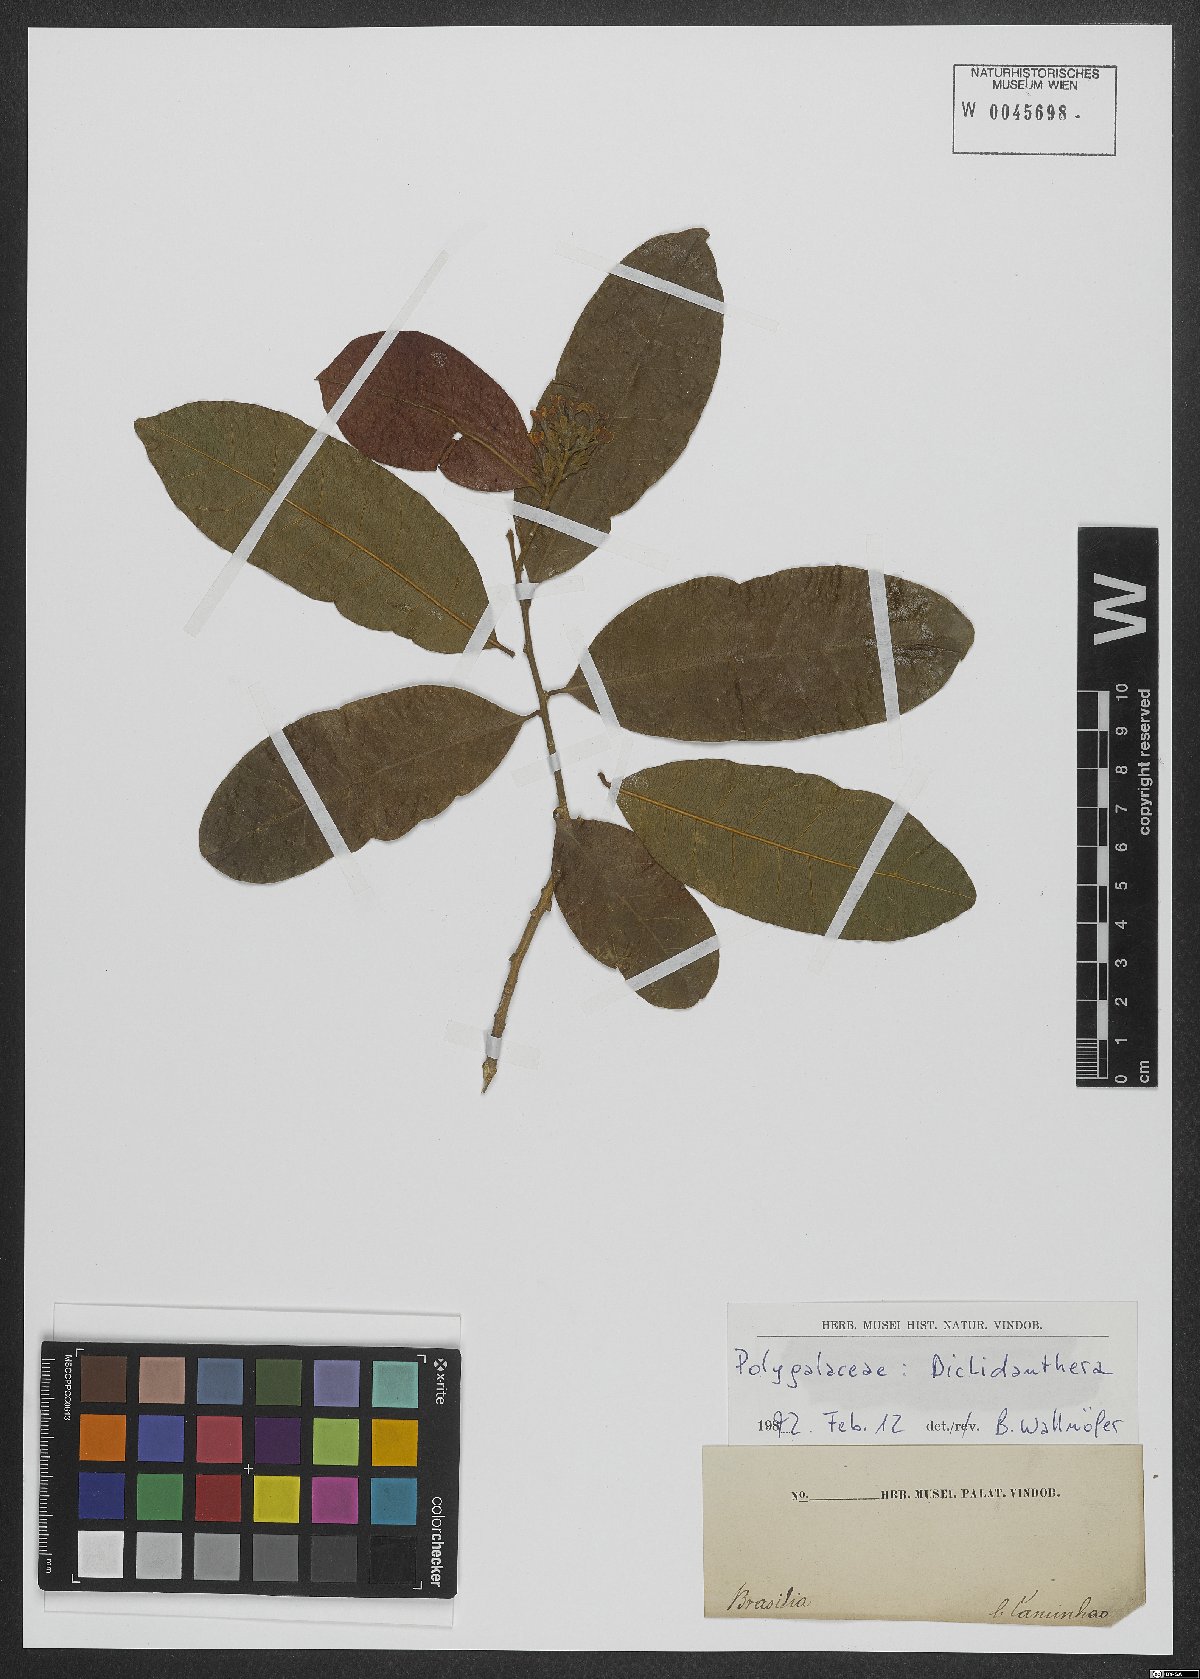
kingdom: Plantae
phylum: Tracheophyta
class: Magnoliopsida
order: Fabales
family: Polygalaceae
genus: Diclidanthera
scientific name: Diclidanthera
